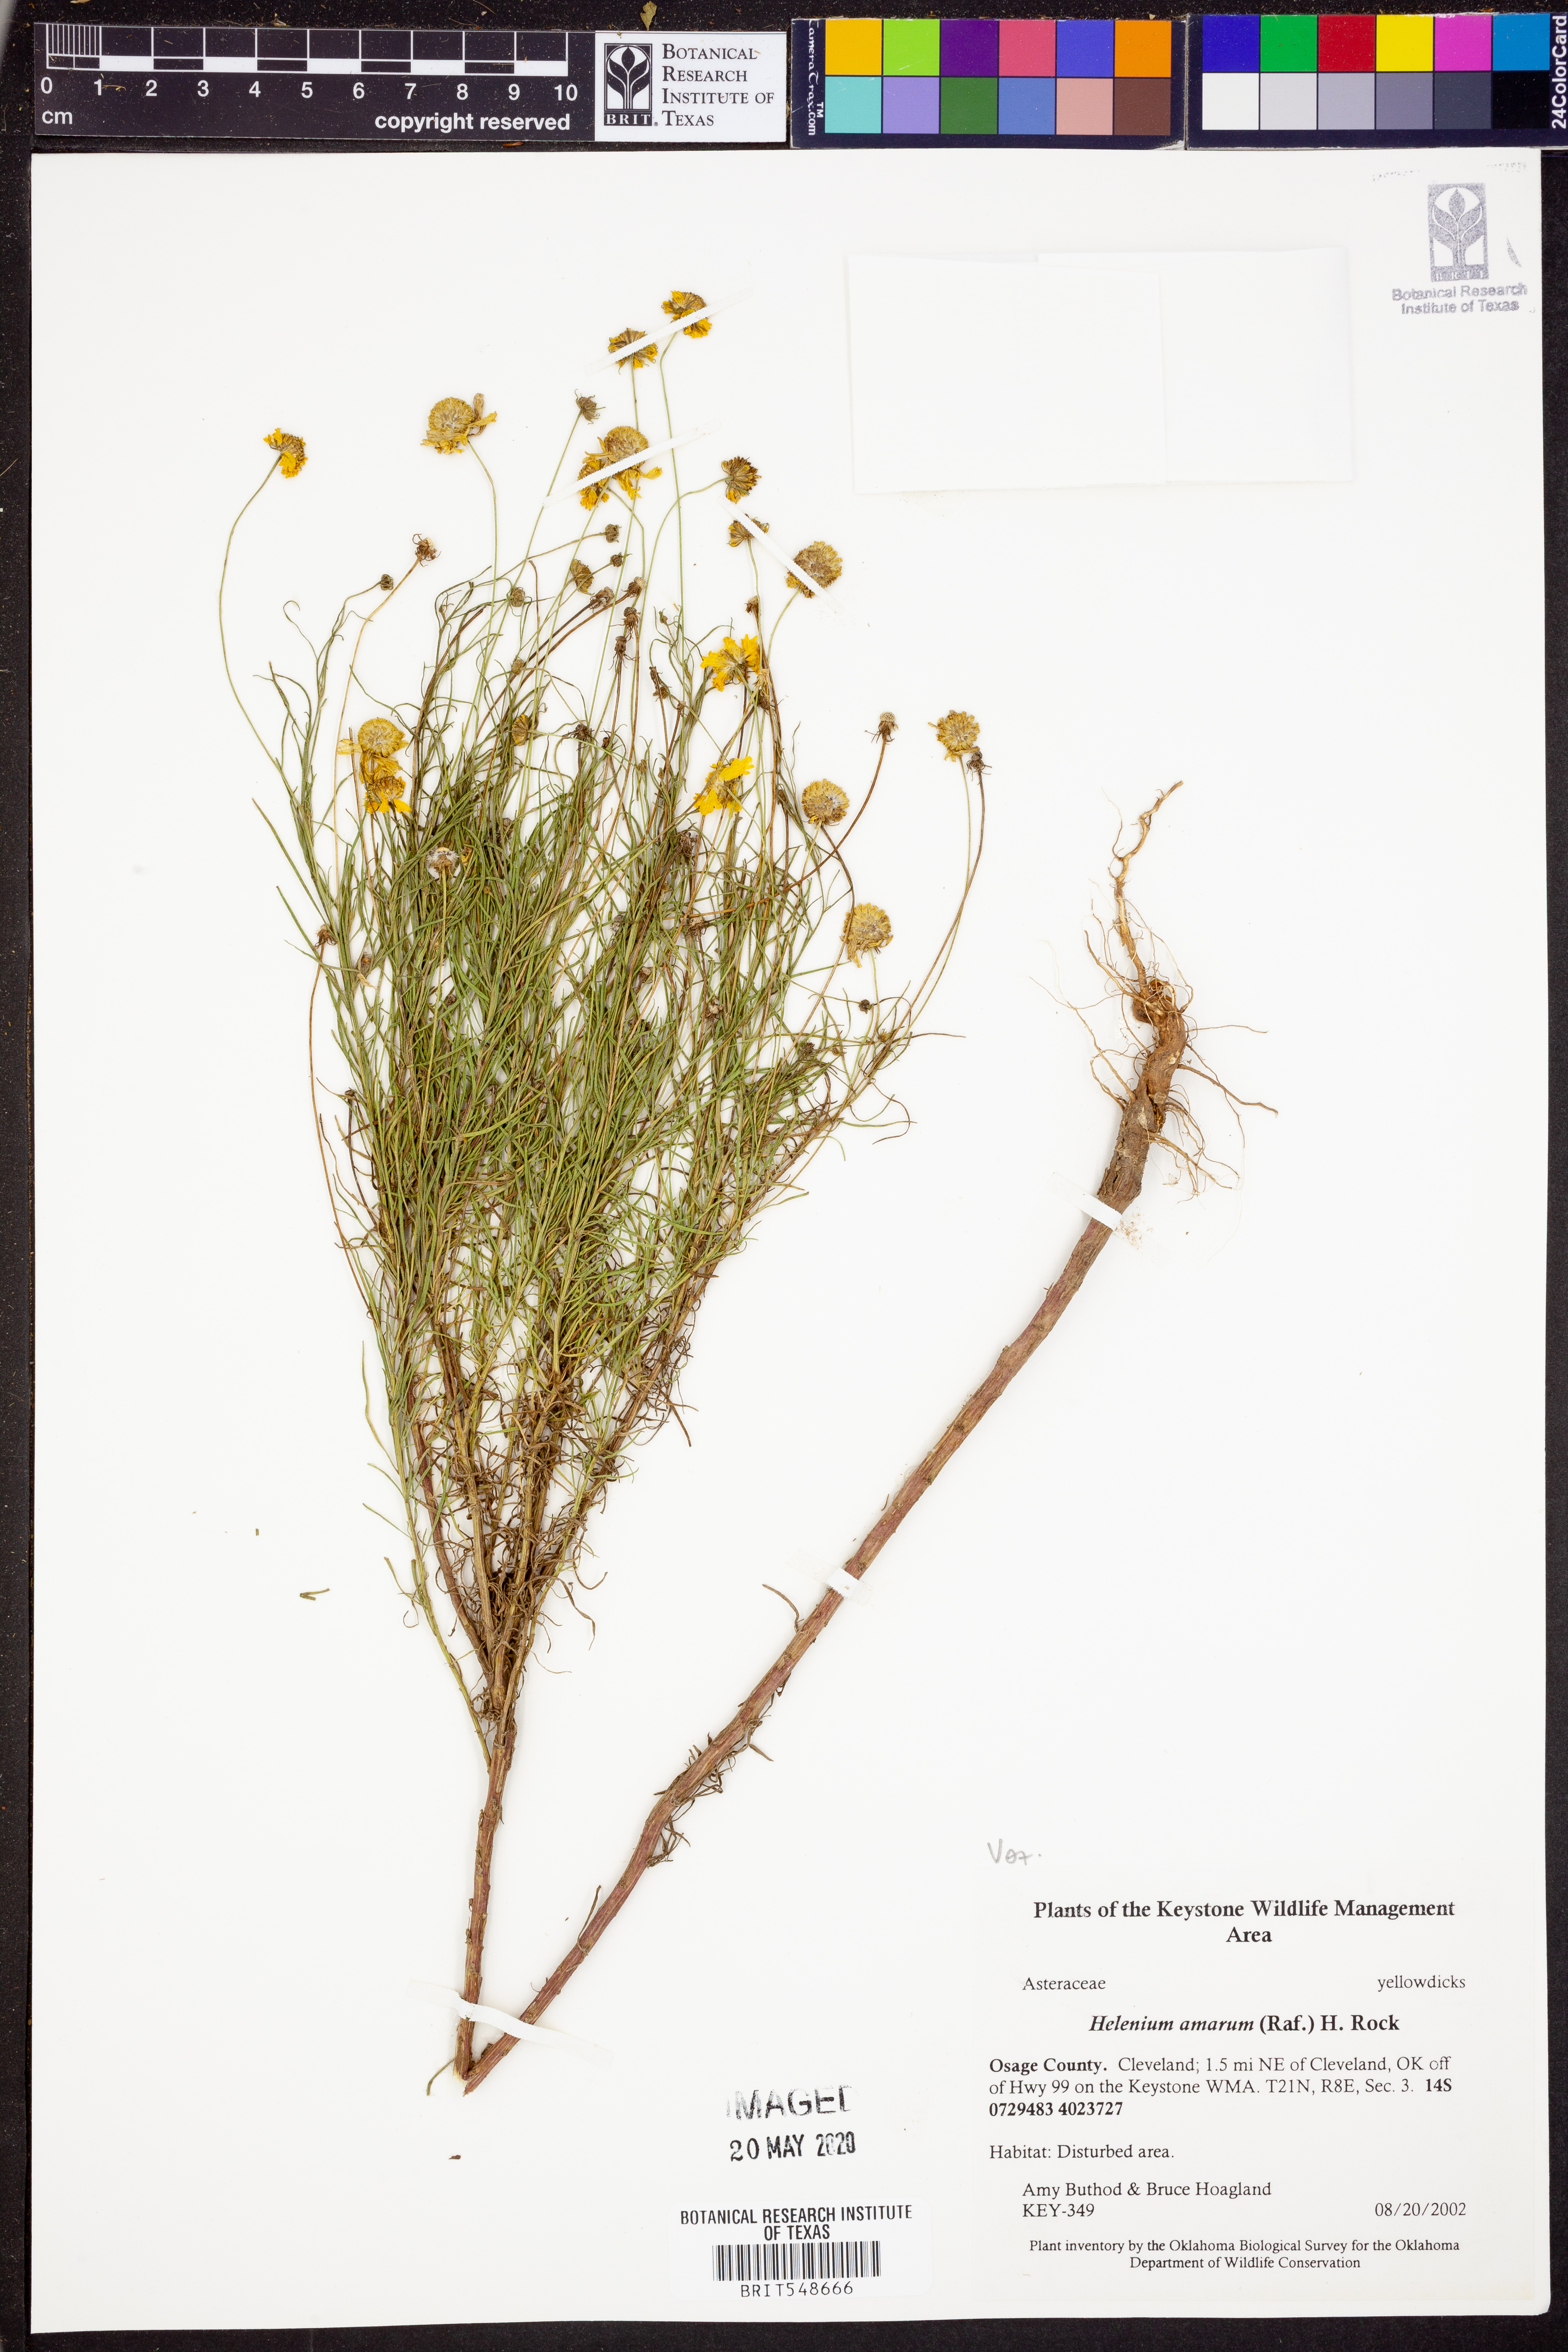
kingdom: Plantae
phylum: Tracheophyta
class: Magnoliopsida
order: Asterales
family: Asteraceae
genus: Helenium
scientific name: Helenium amarum
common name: Bitter sneezeweed
